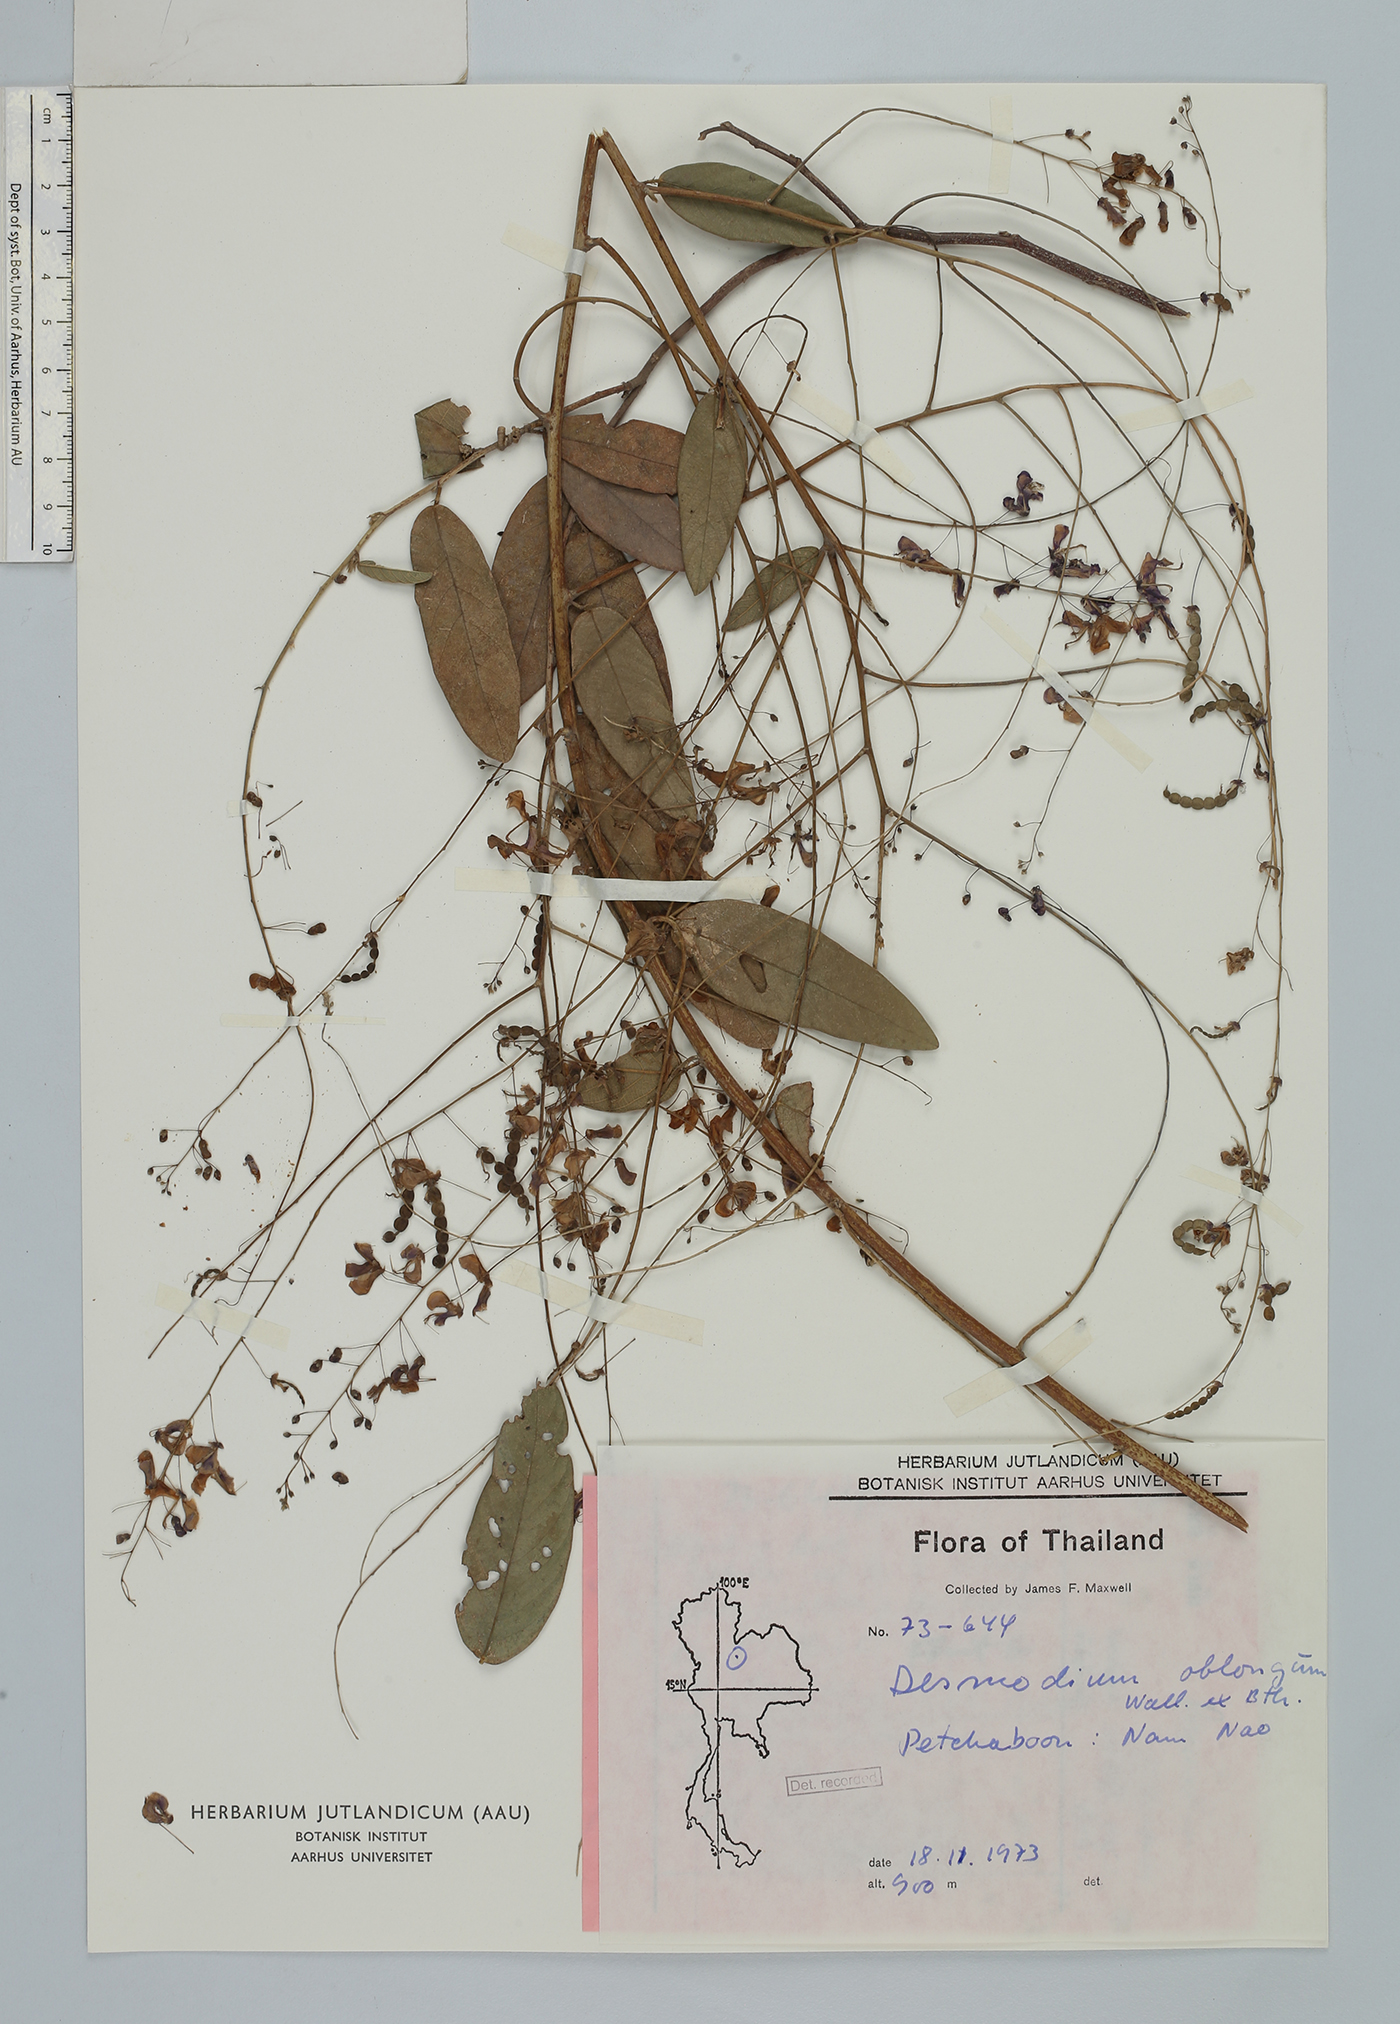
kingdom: Plantae
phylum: Tracheophyta
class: Magnoliopsida
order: Fabales
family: Fabaceae
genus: Uraria
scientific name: Uraria oblonga
